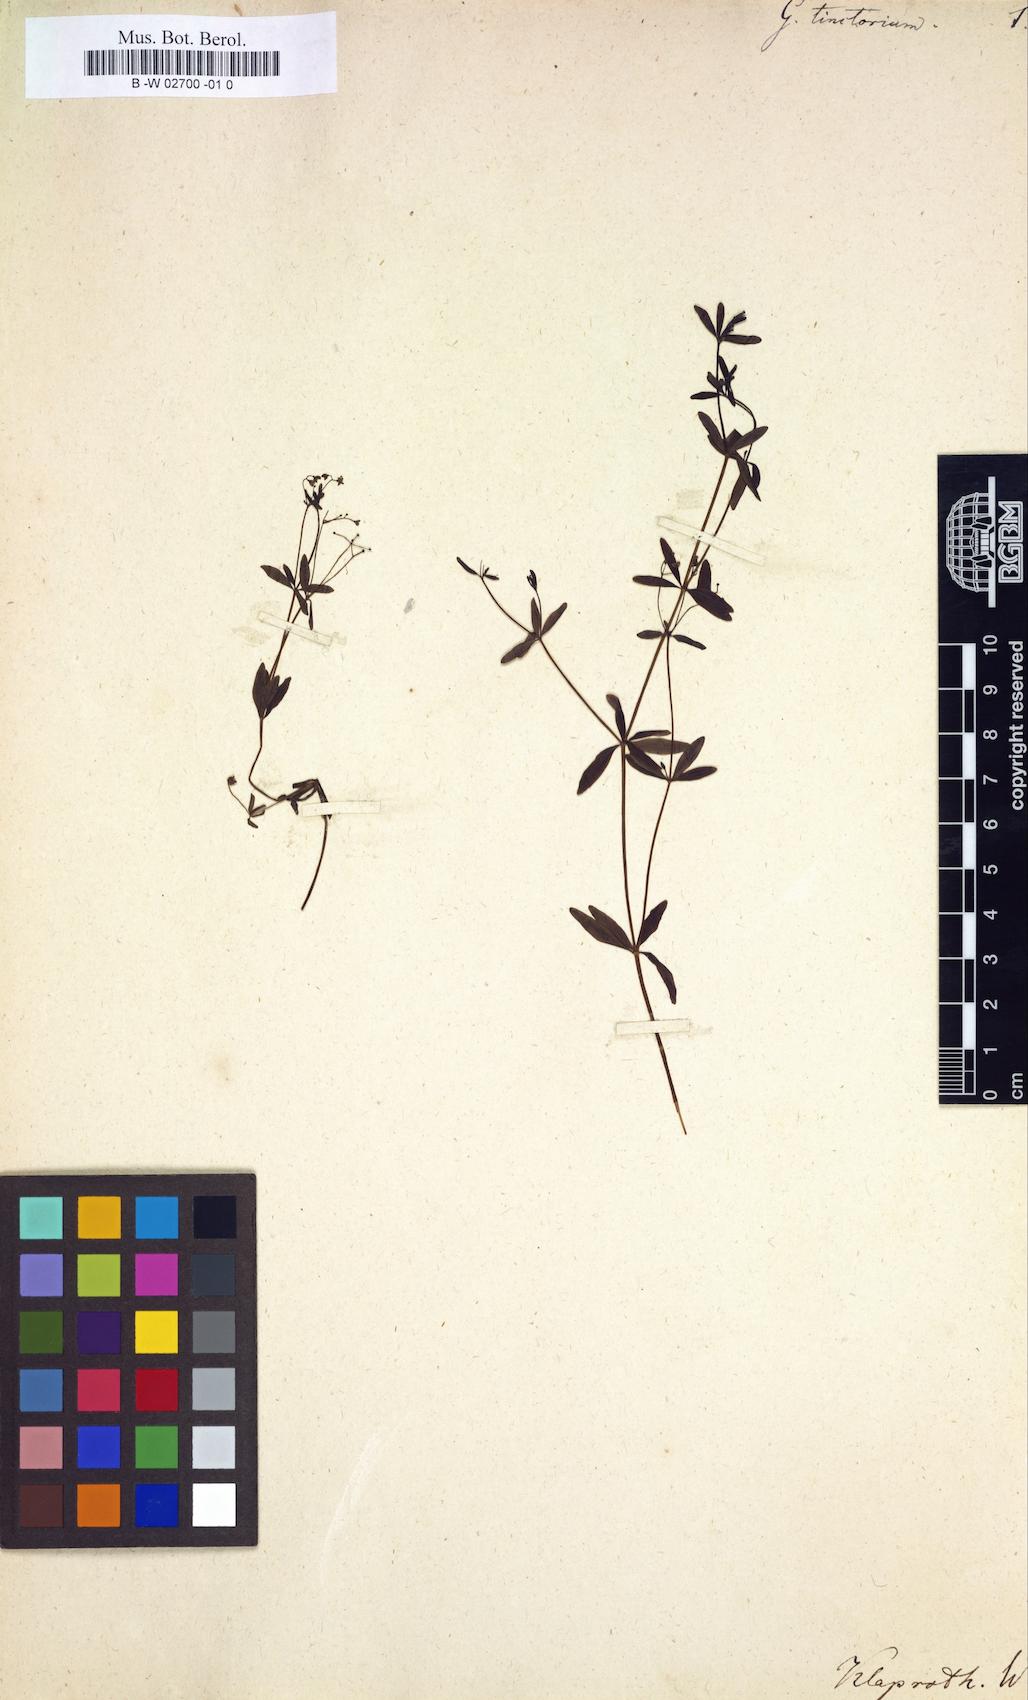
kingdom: Plantae
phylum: Tracheophyta
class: Magnoliopsida
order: Gentianales
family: Rubiaceae
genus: Galium
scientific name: Galium tinctorium
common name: Bedstraw
